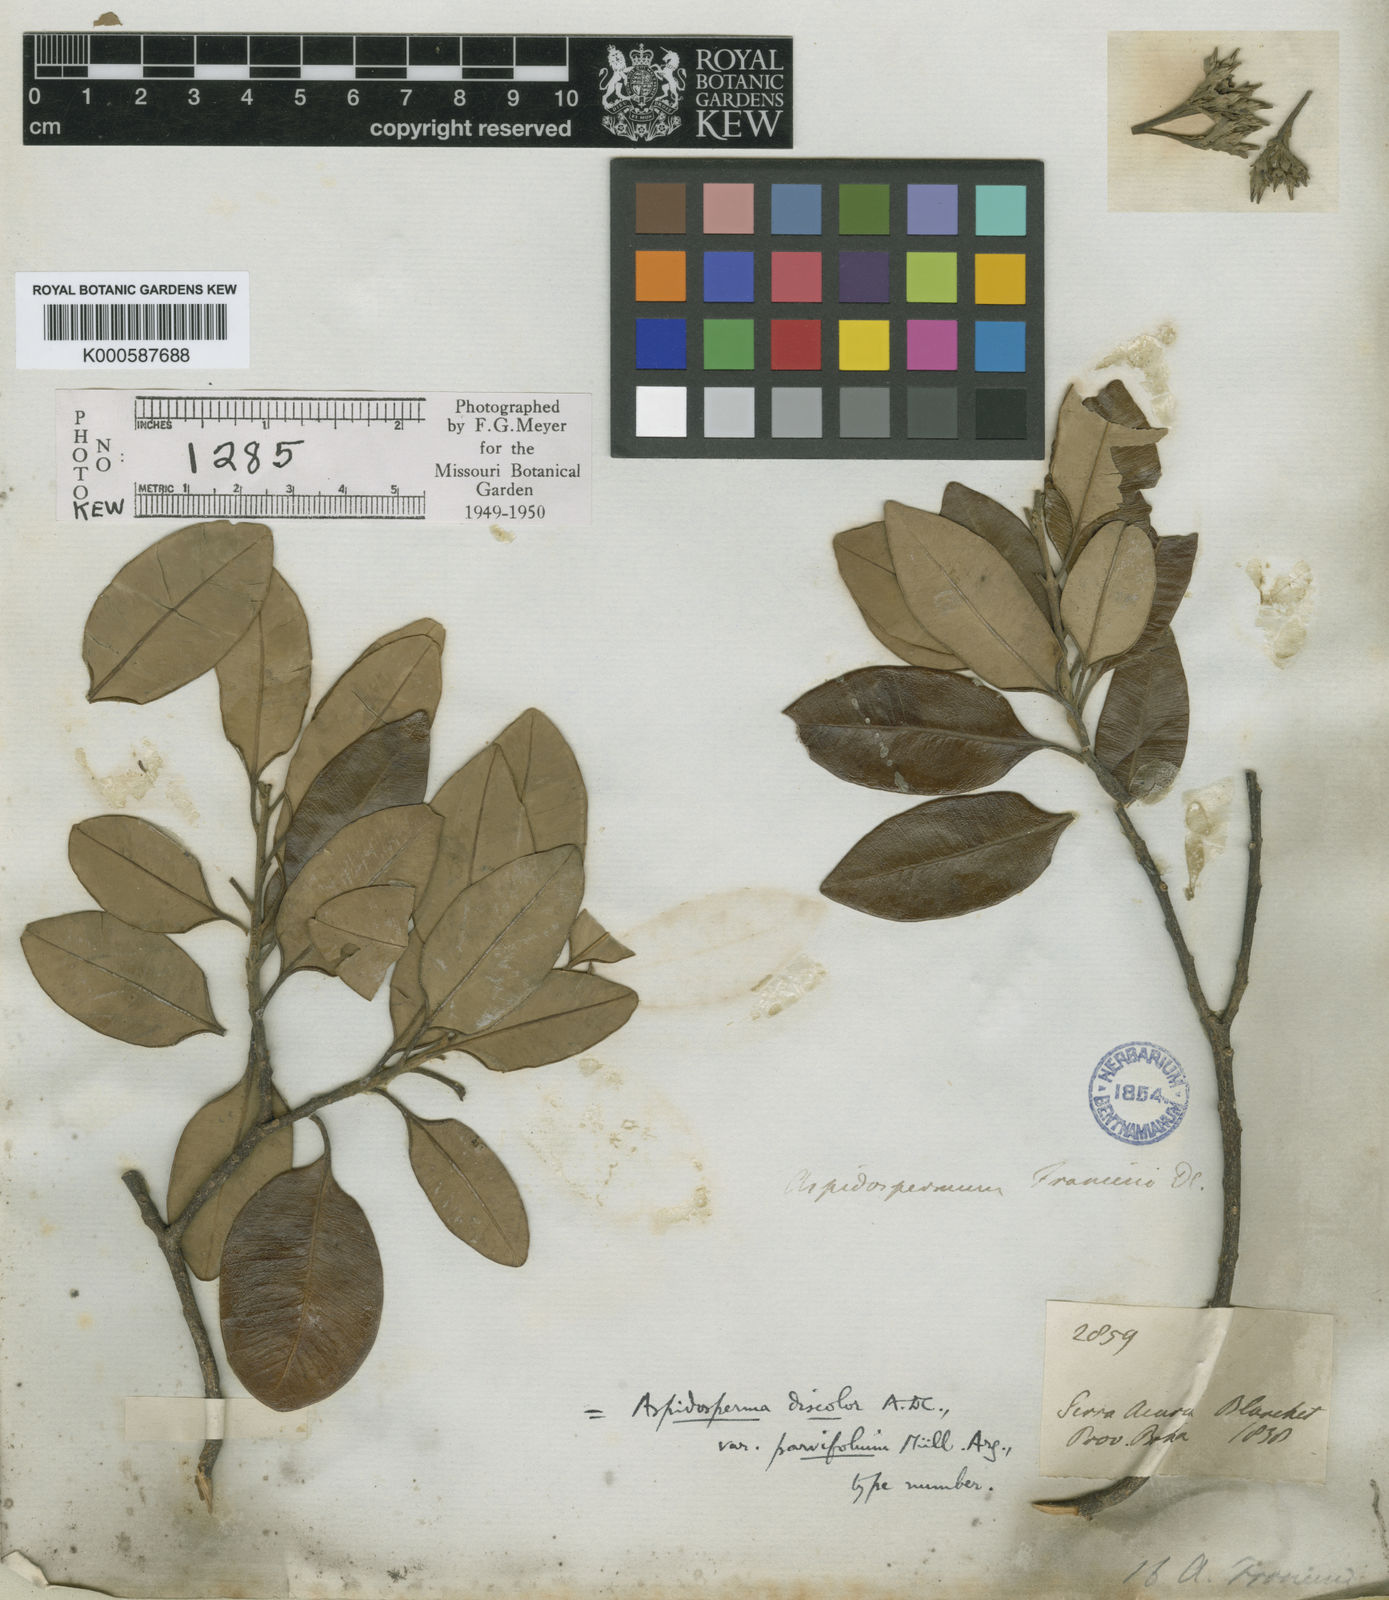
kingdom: Plantae
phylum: Tracheophyta
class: Magnoliopsida
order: Gentianales
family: Apocynaceae
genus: Aspidosperma
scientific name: Aspidosperma discolor
